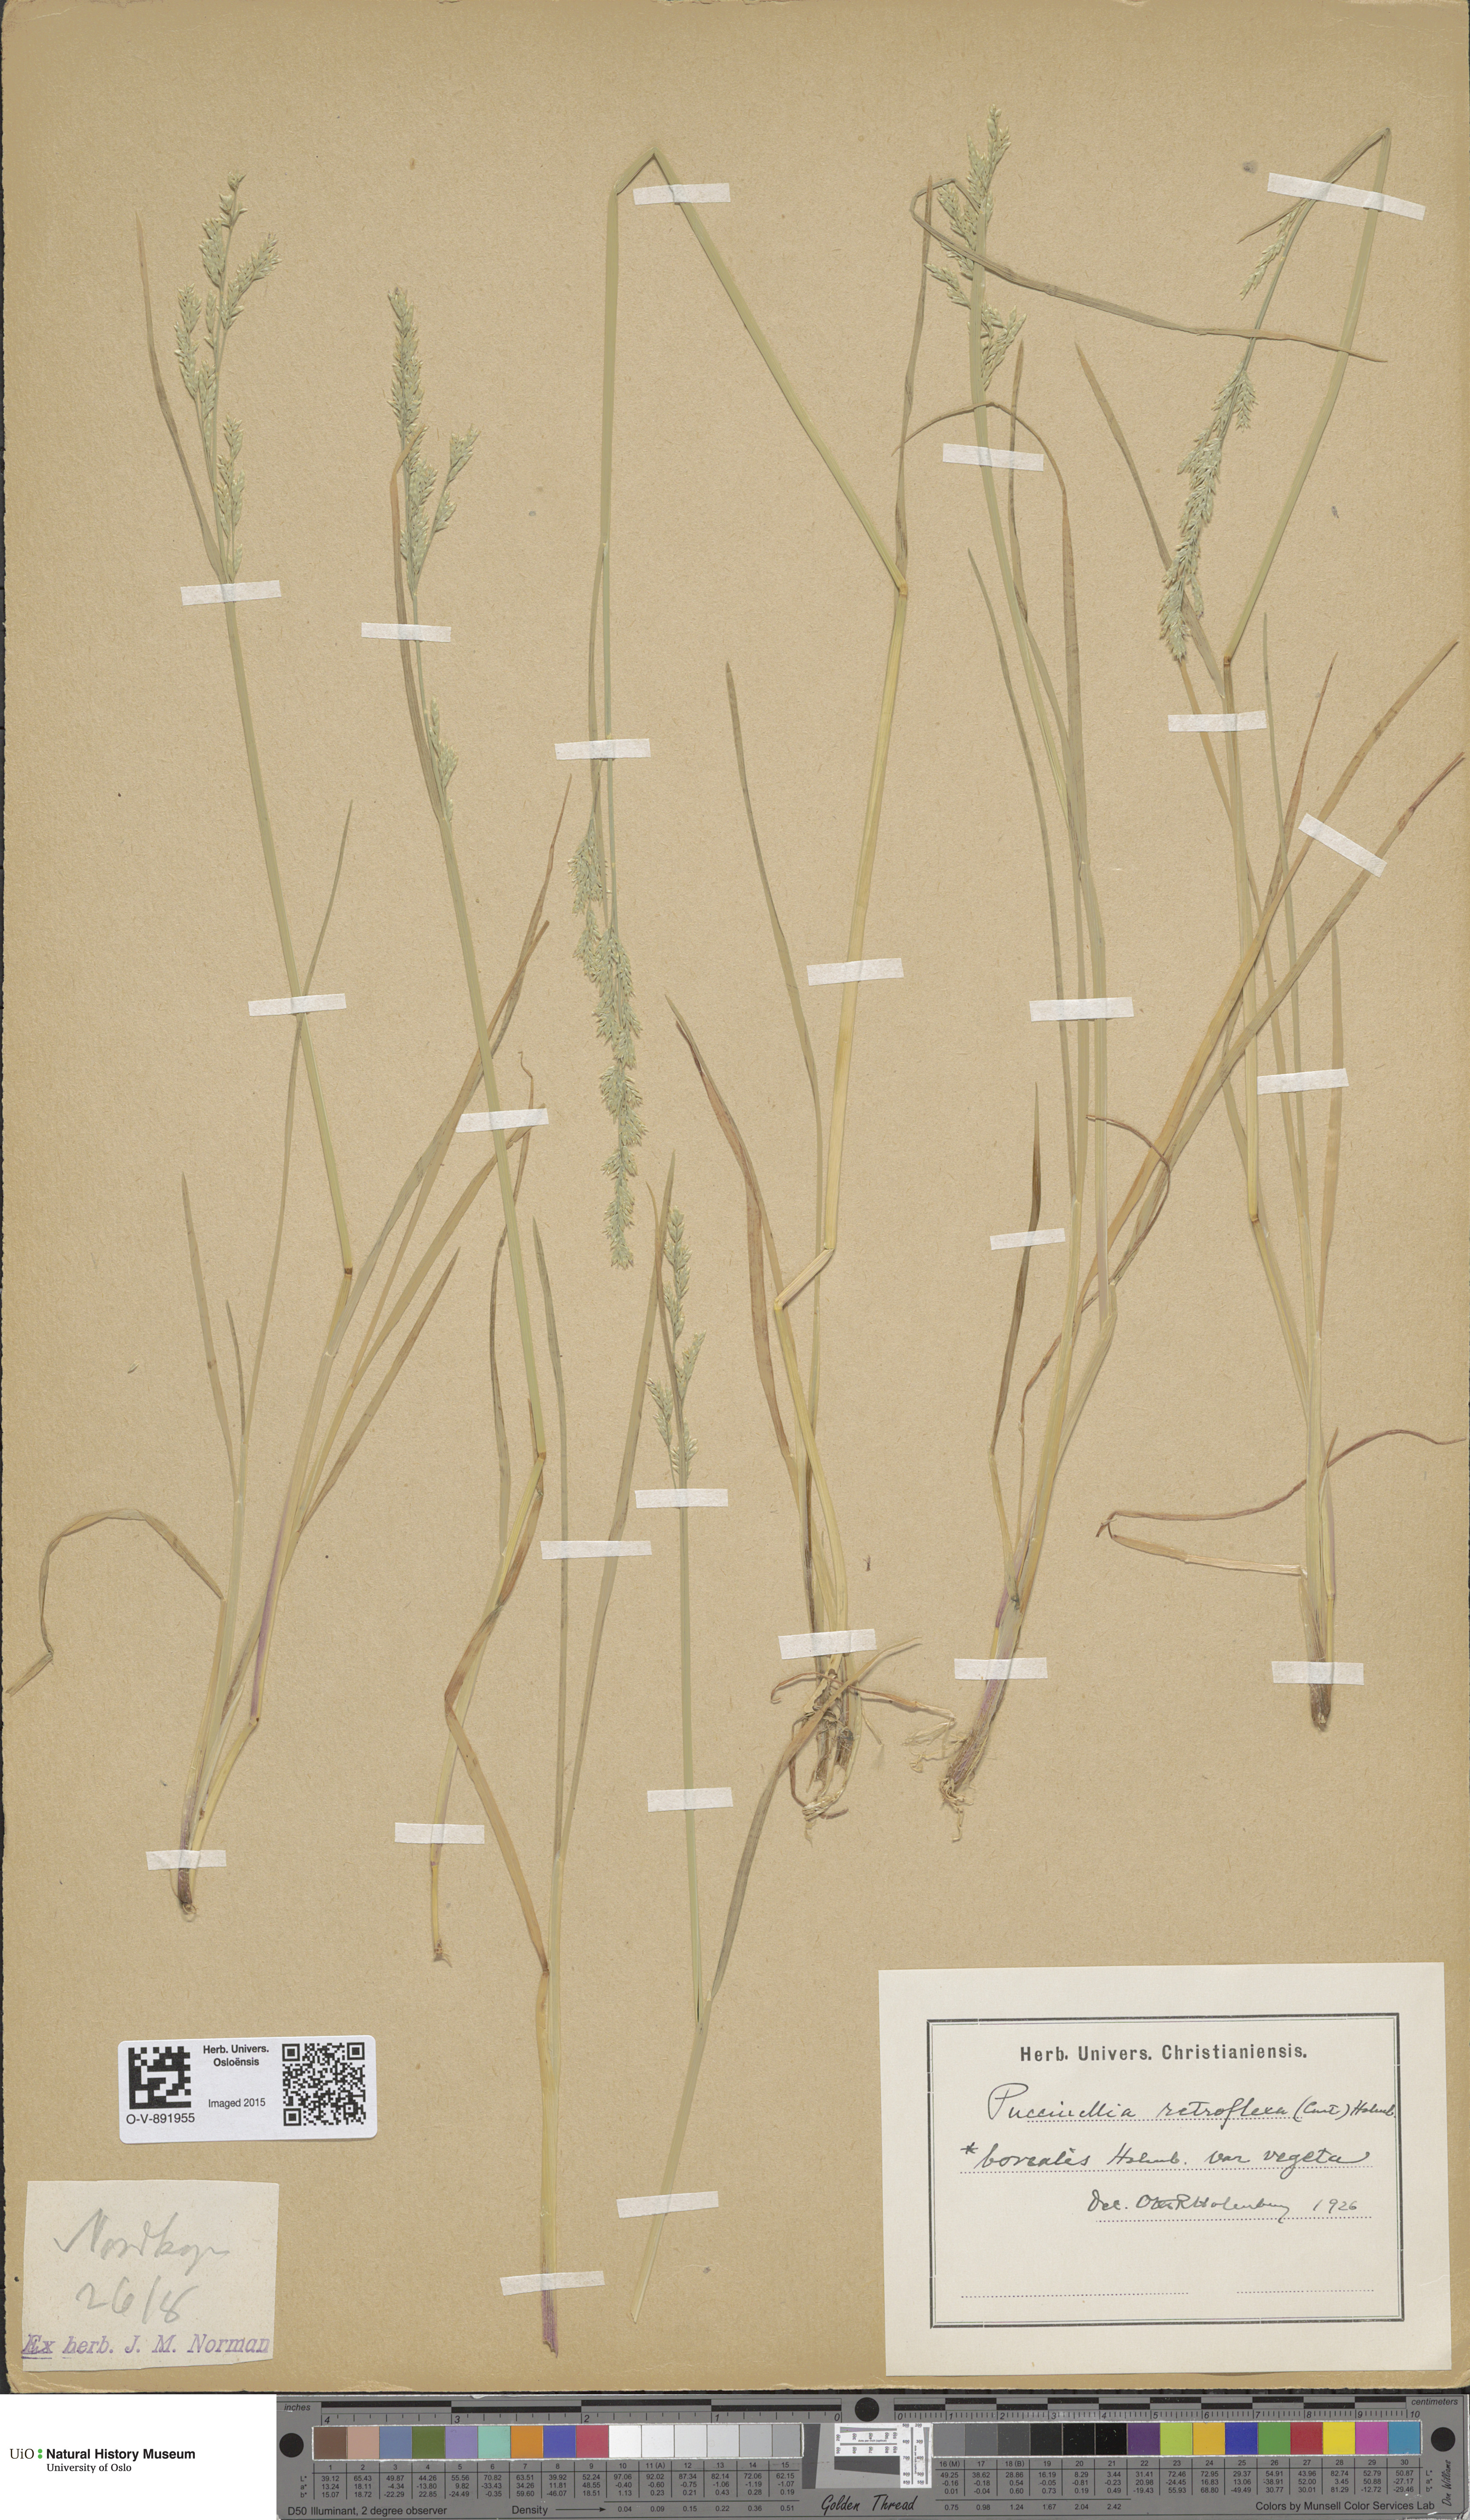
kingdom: Plantae
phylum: Tracheophyta
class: Liliopsida
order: Poales
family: Poaceae
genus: Puccinellia
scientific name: Puccinellia distans
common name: Weeping alkaligrass
